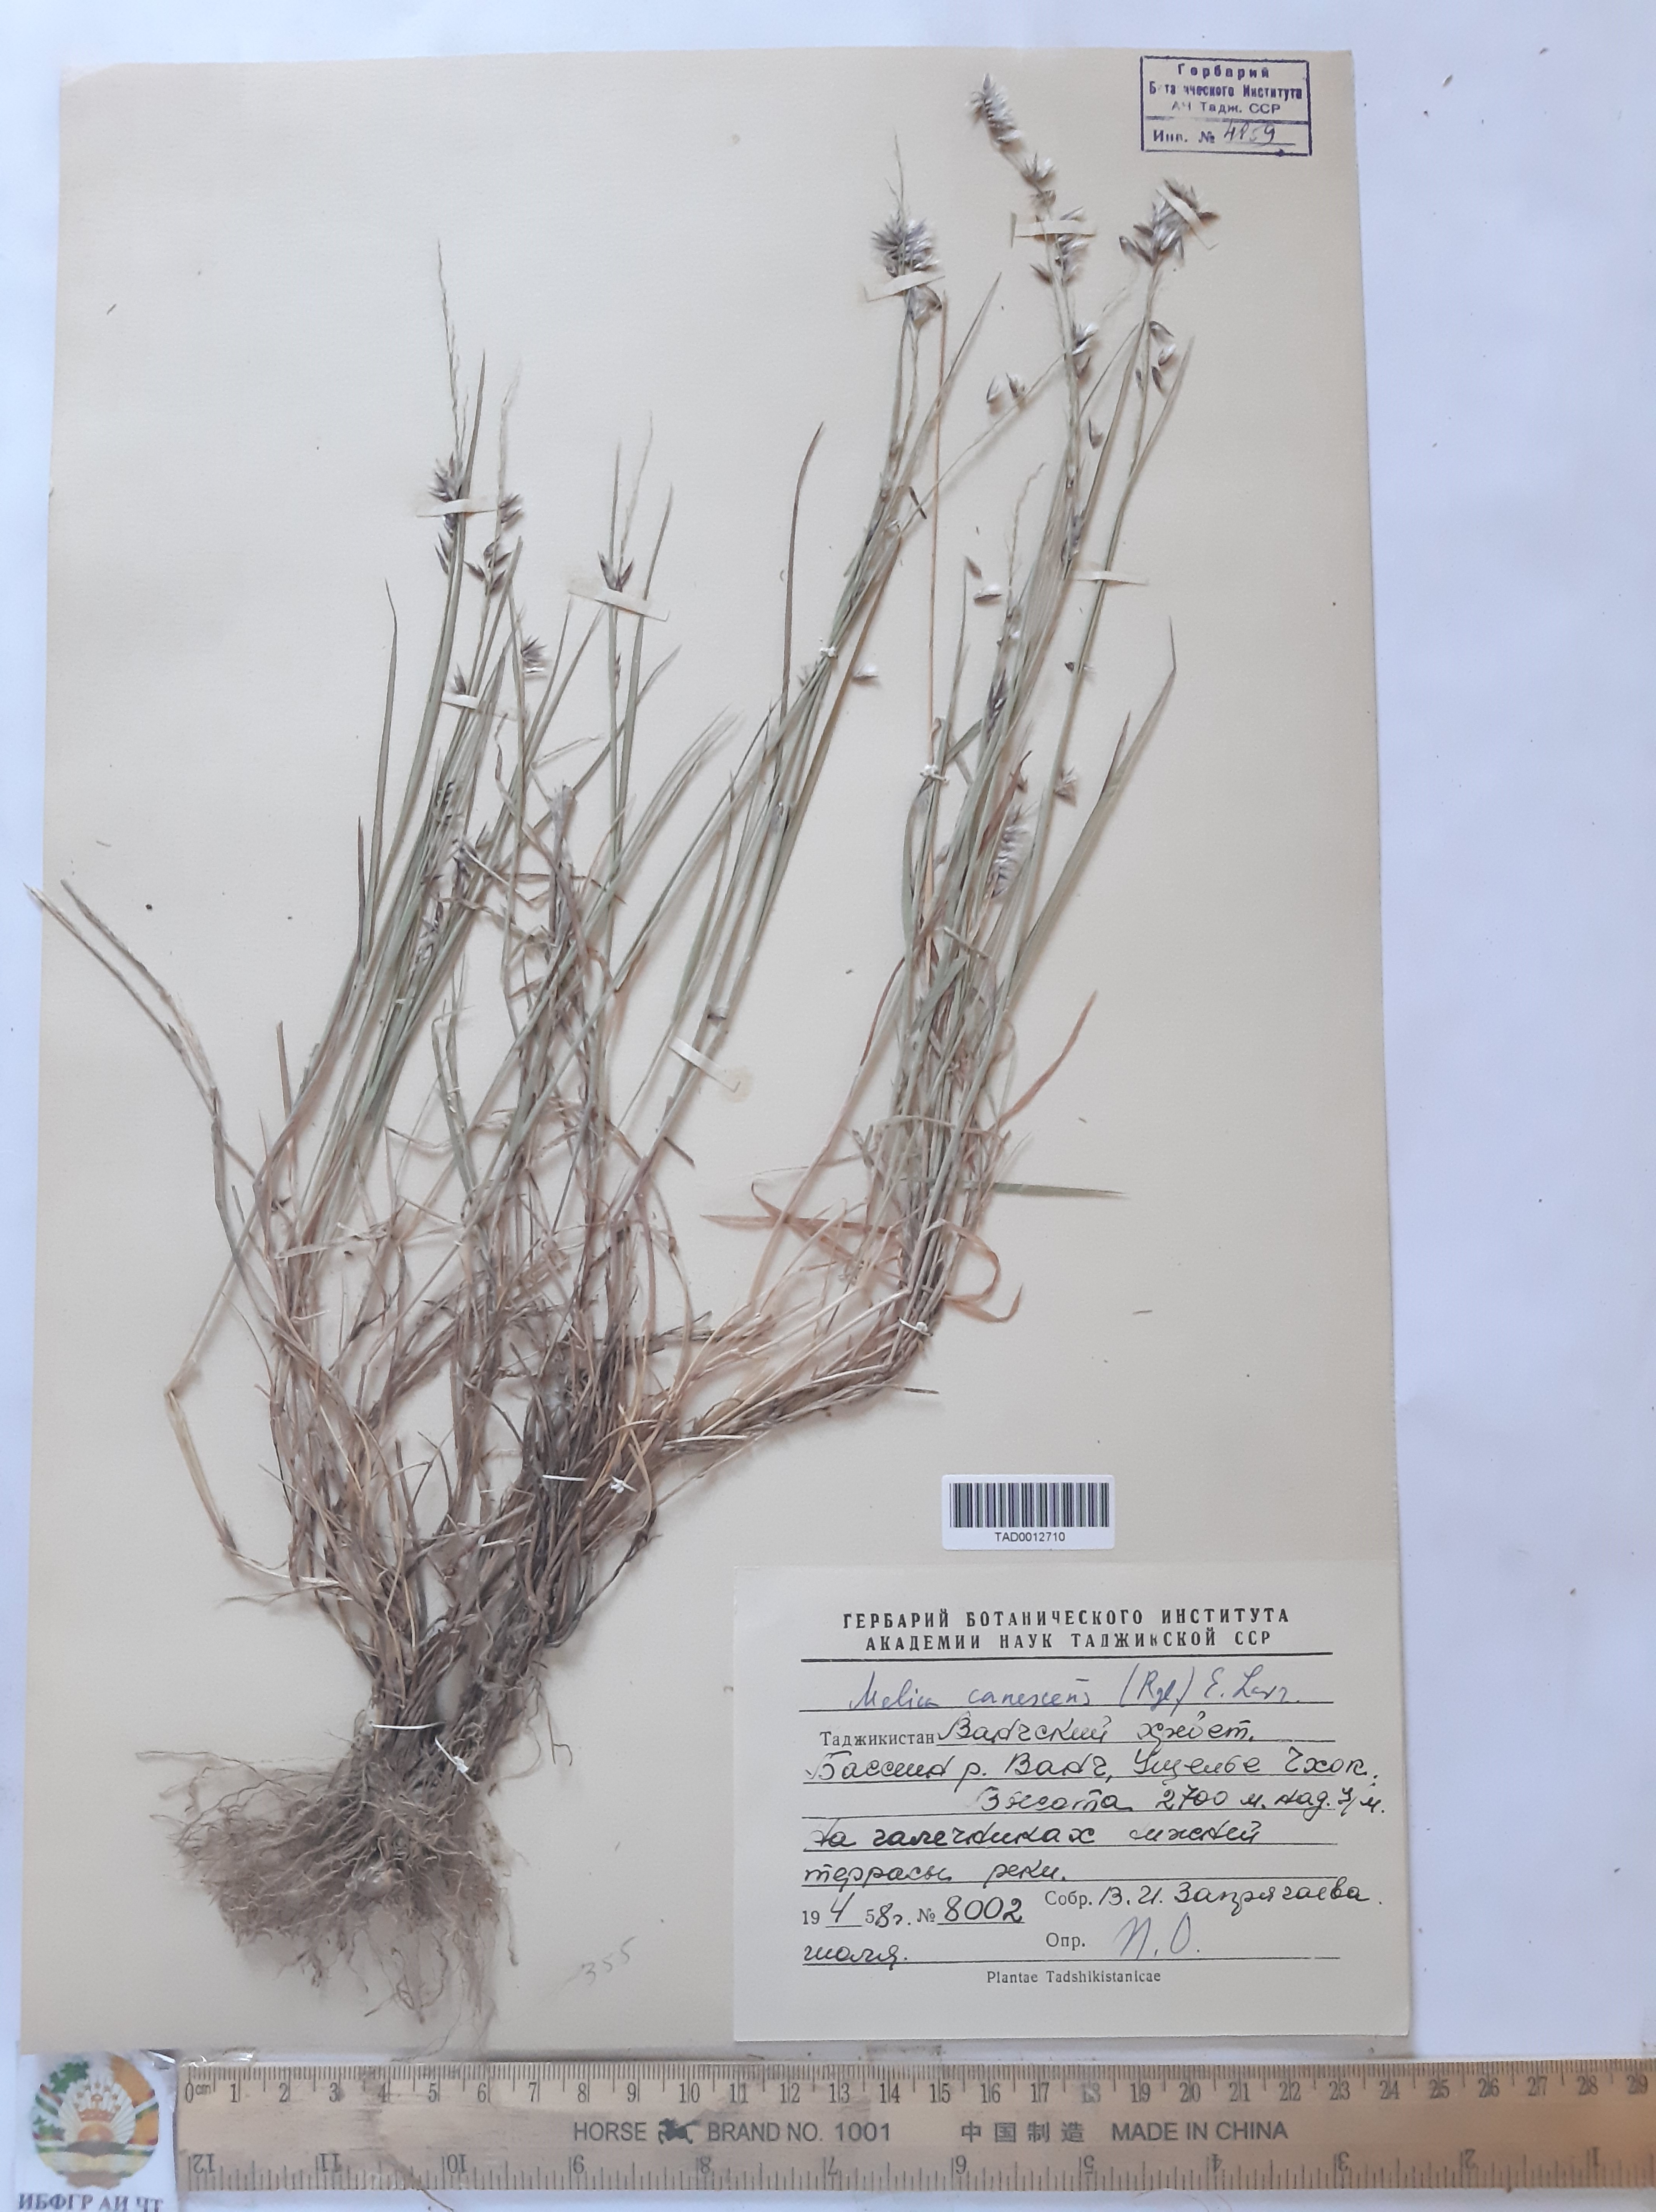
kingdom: Plantae
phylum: Tracheophyta
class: Liliopsida
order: Poales
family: Poaceae
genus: Melica
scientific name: Melica persica
